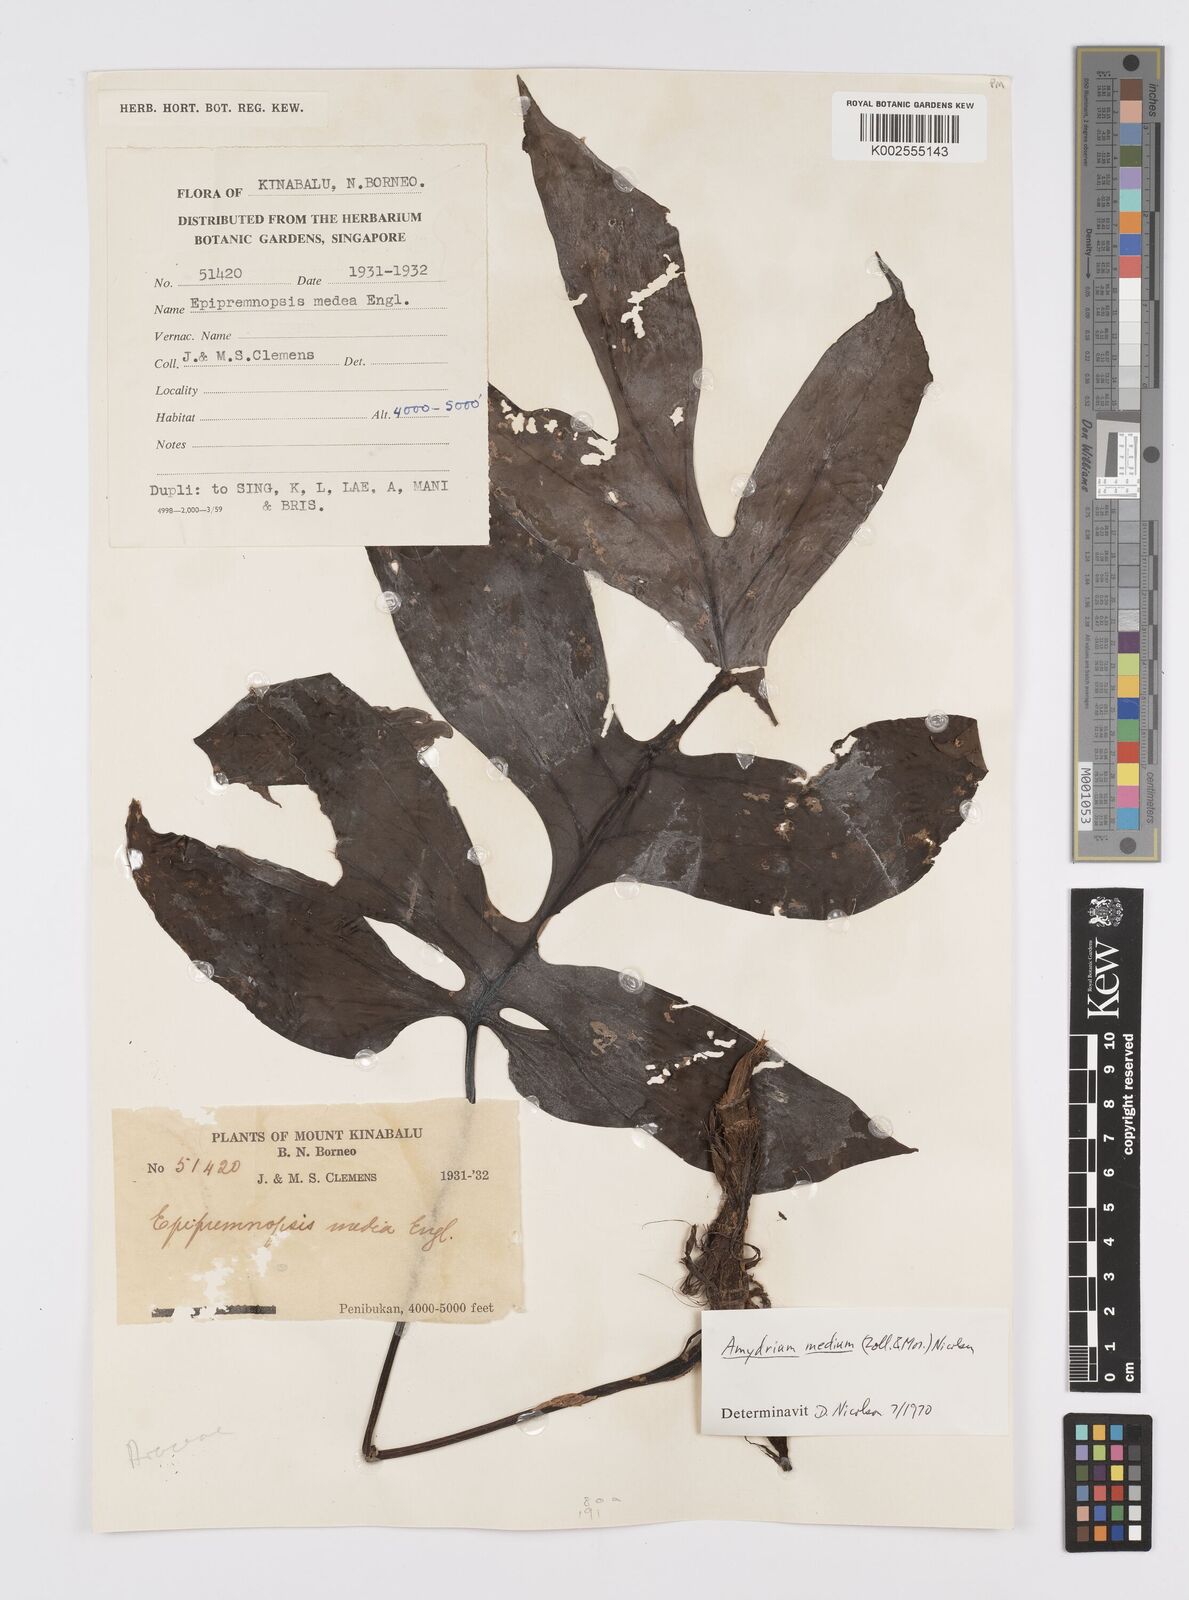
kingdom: Plantae
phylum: Tracheophyta
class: Liliopsida
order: Alismatales
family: Araceae
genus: Amydrium
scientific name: Amydrium medium
